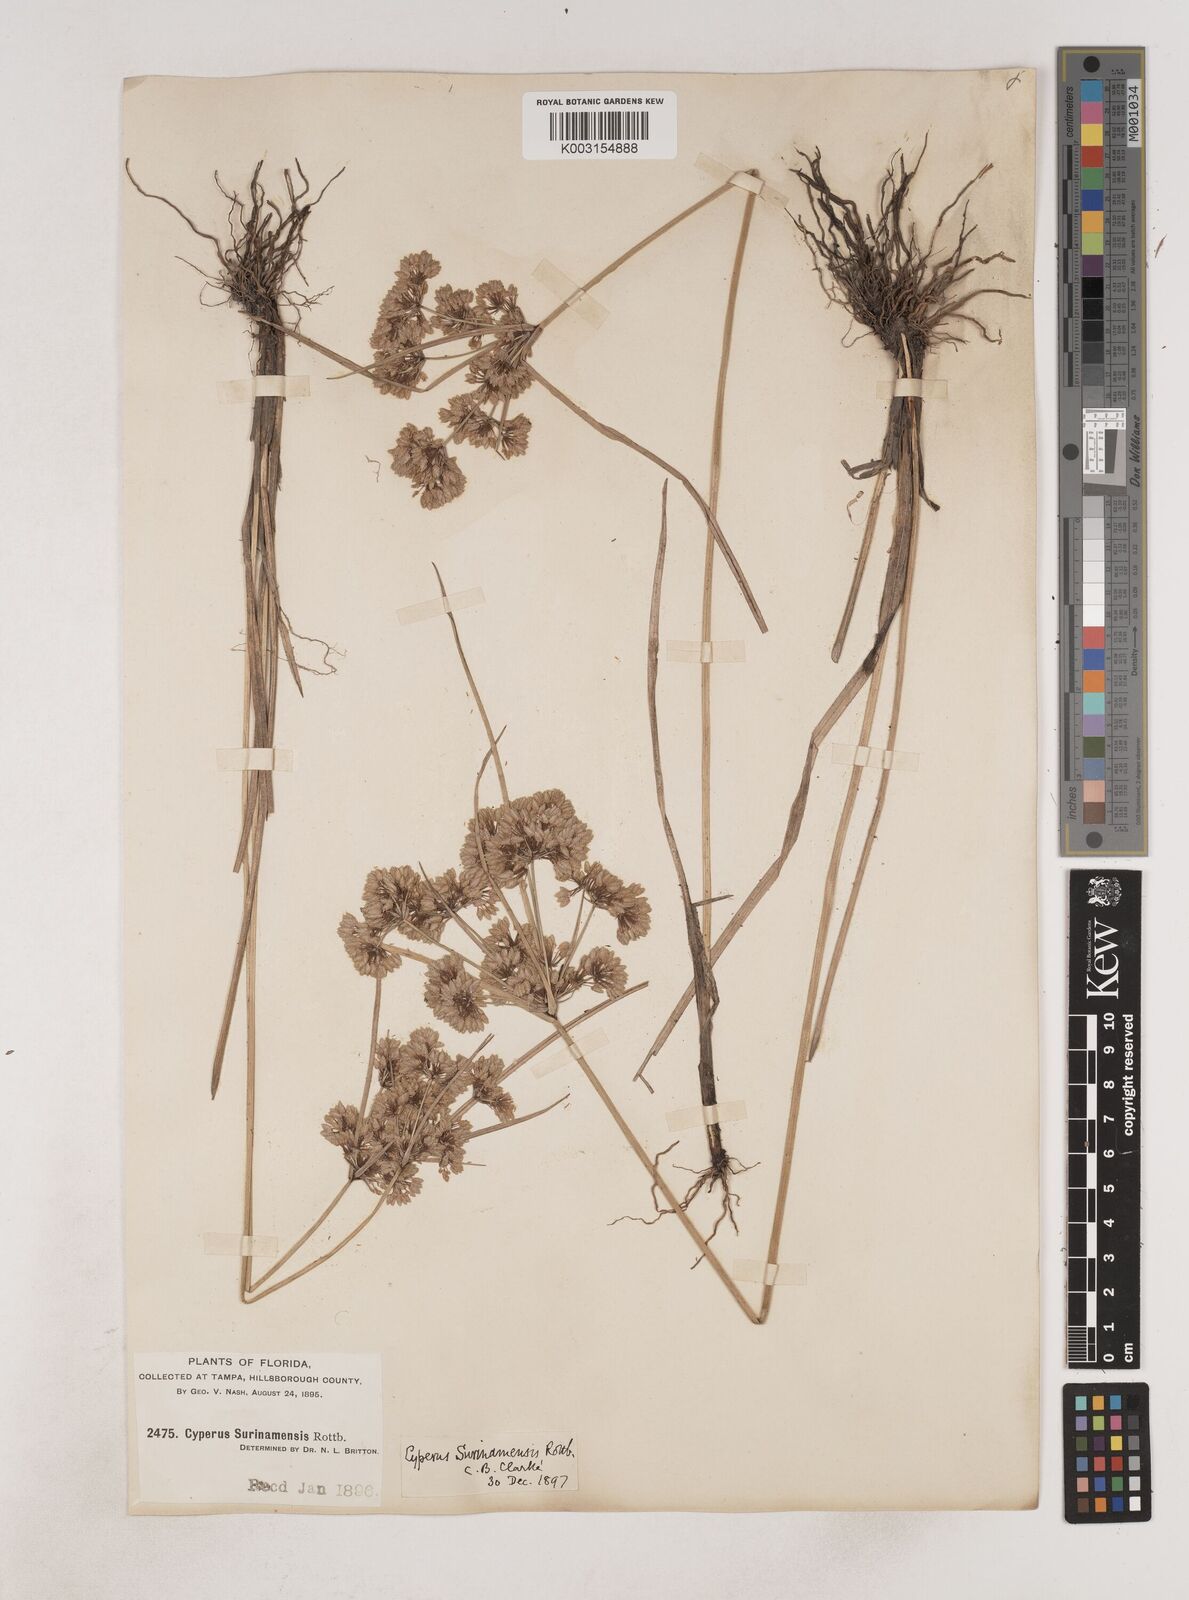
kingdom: Plantae
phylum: Tracheophyta
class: Liliopsida
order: Poales
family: Cyperaceae
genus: Cyperus
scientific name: Cyperus surinamensis
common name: Tropical flat sedge
